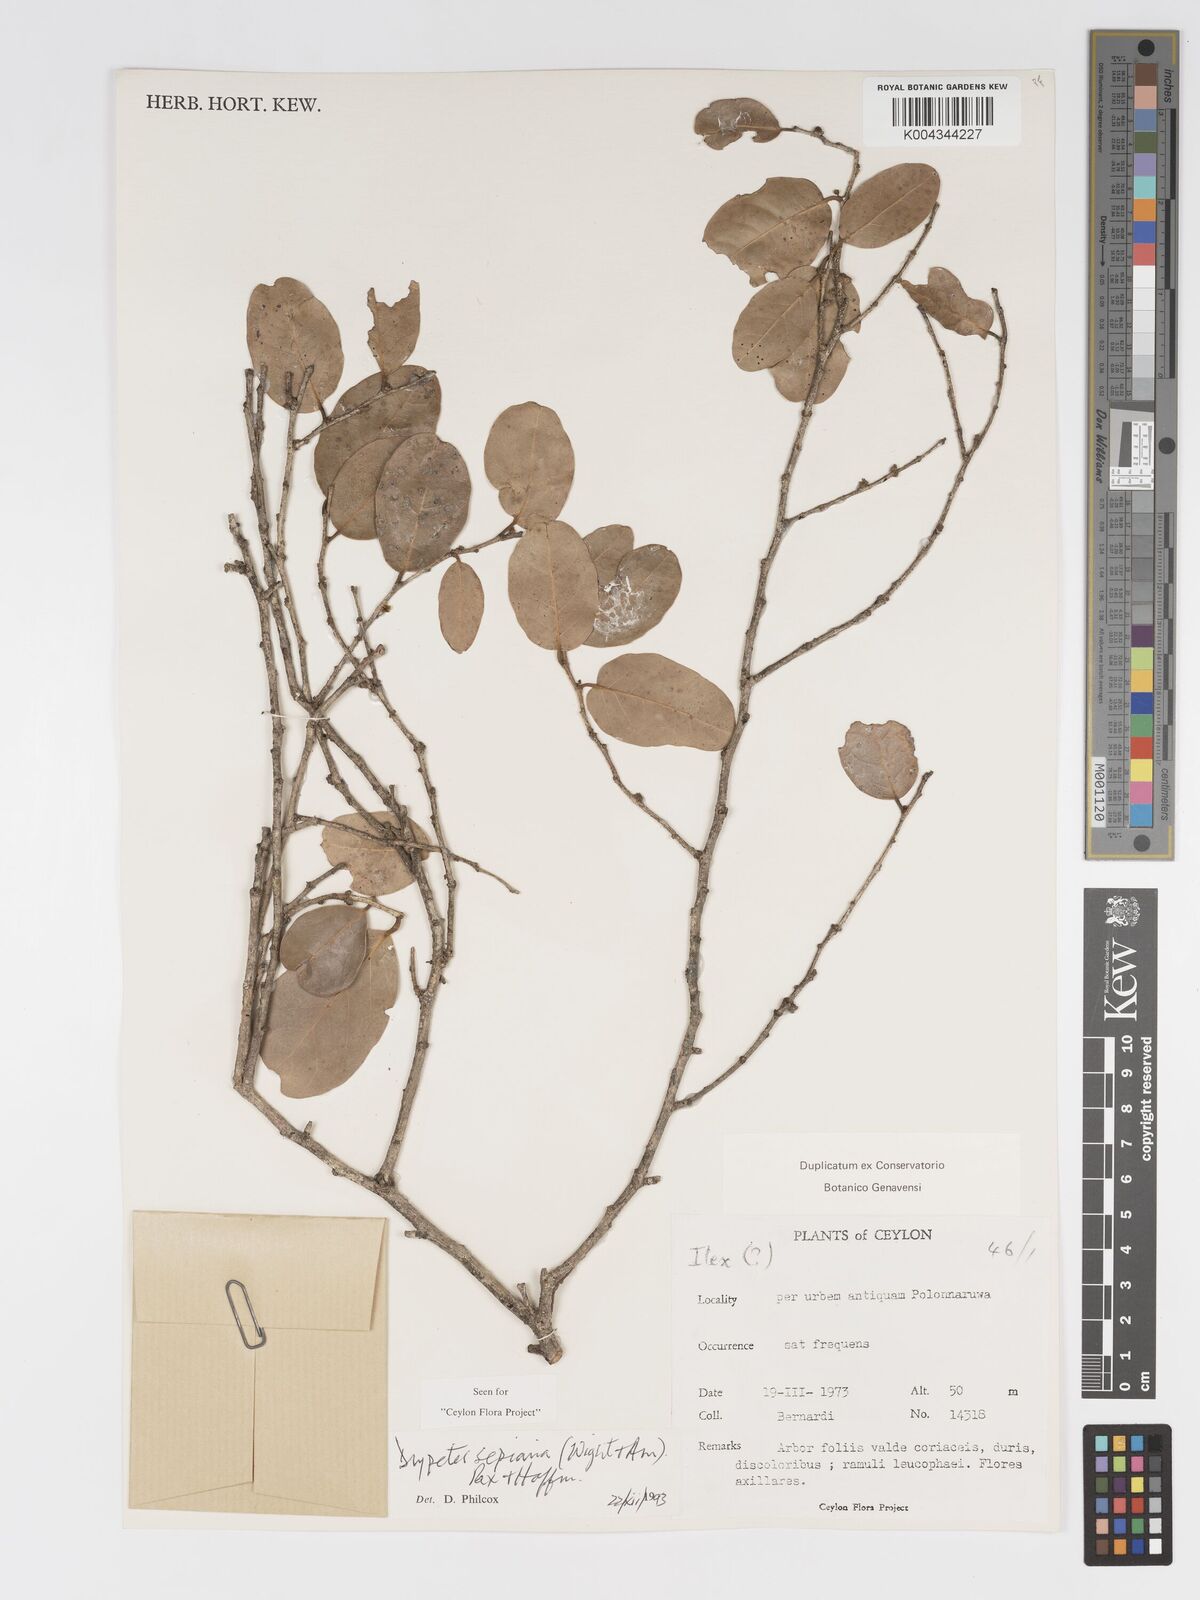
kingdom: Plantae
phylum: Tracheophyta
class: Magnoliopsida
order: Malpighiales
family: Putranjivaceae
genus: Drypetes
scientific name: Drypetes sepiaria
